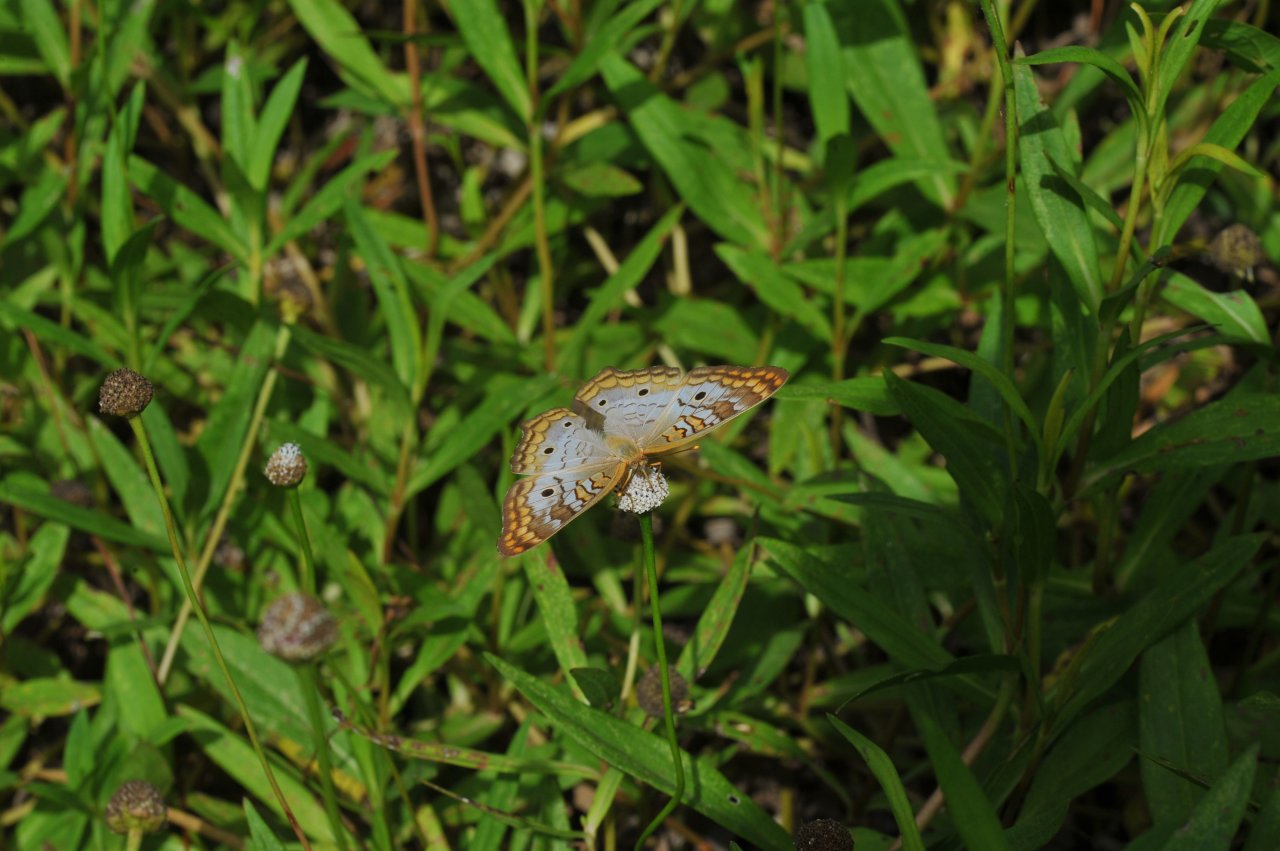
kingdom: Animalia
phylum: Arthropoda
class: Insecta
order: Lepidoptera
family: Nymphalidae
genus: Anartia
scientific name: Anartia jatrophae
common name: White Peacock
